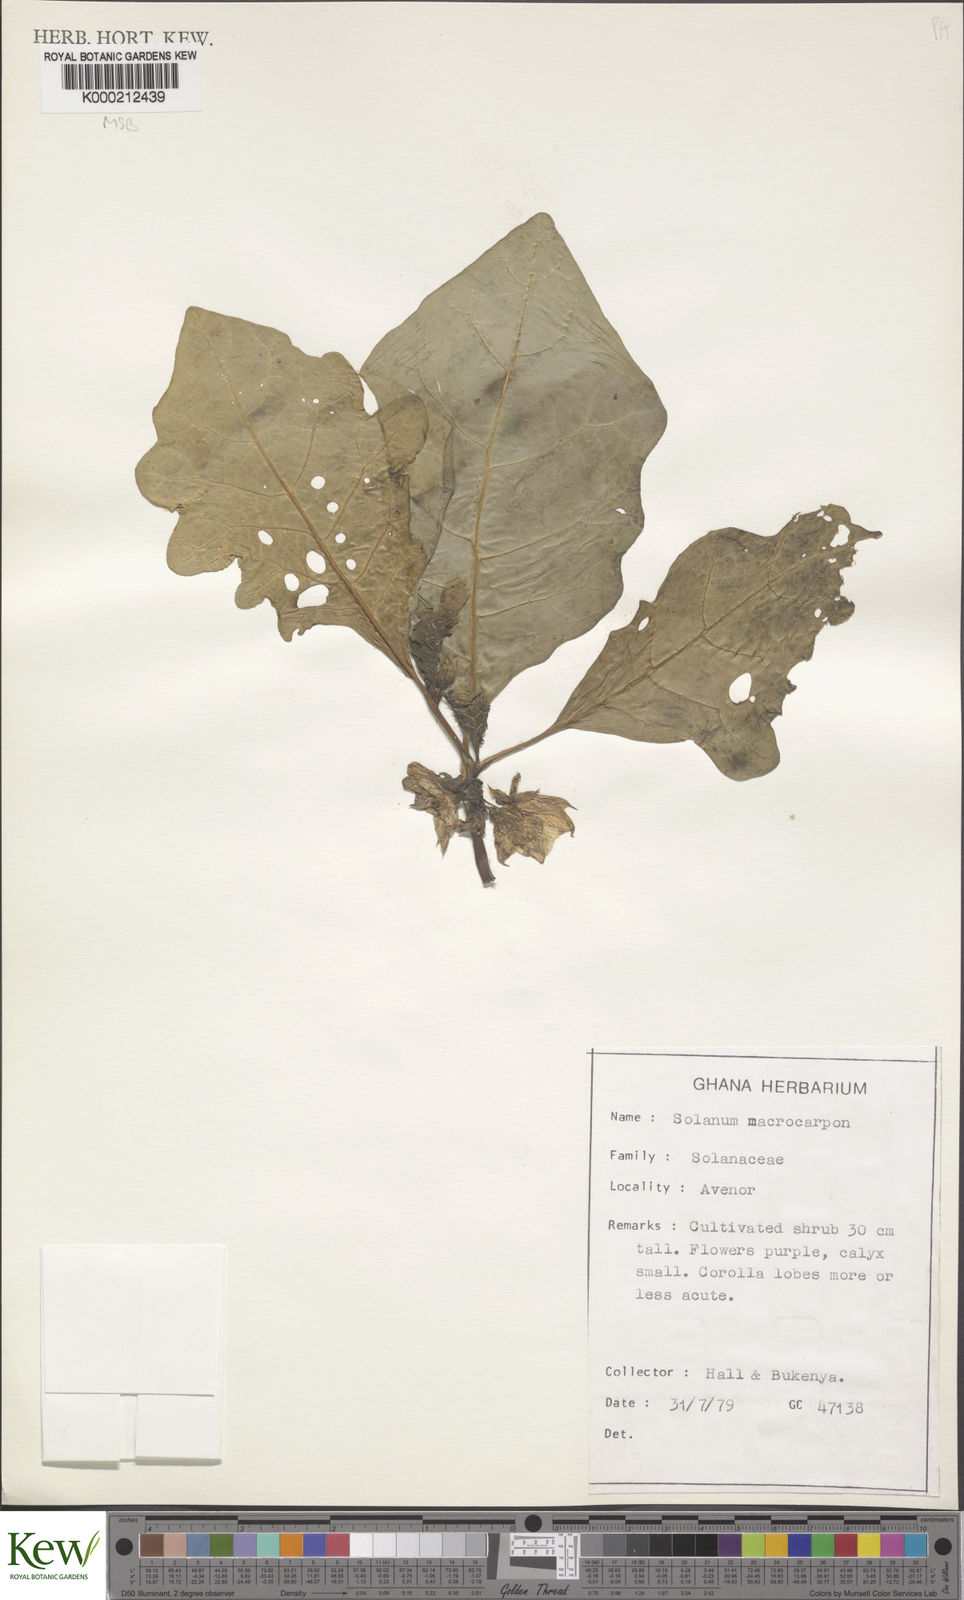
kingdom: Plantae
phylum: Tracheophyta
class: Magnoliopsida
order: Solanales
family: Solanaceae
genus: Solanum
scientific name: Solanum macrocarpon
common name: African eggplant
